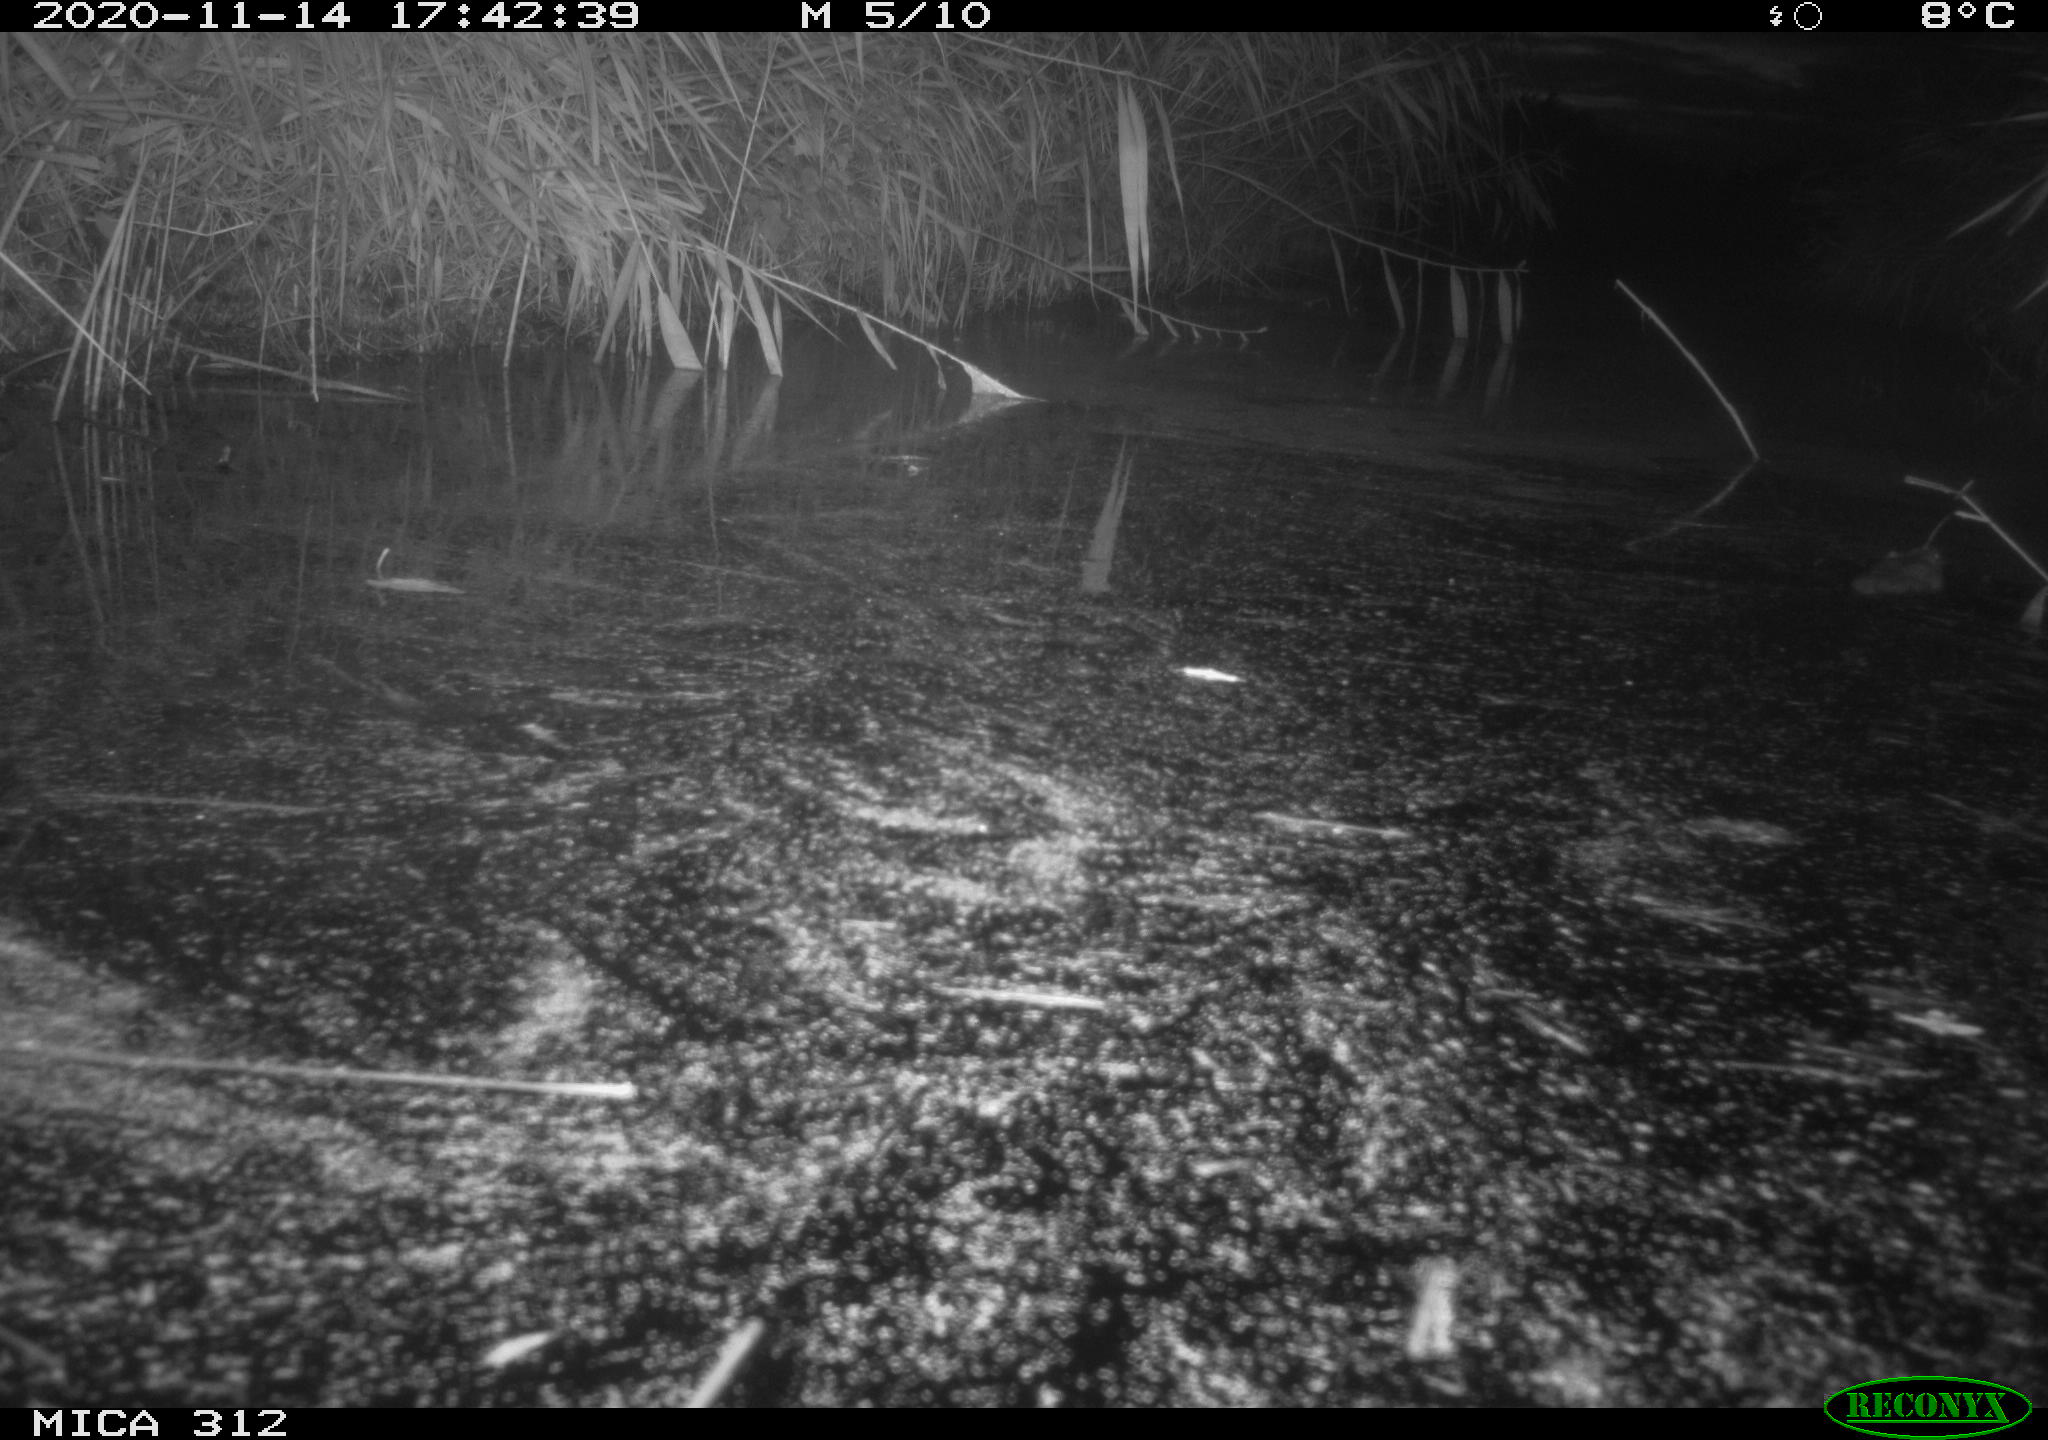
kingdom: Animalia
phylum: Chordata
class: Mammalia
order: Rodentia
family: Muridae
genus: Rattus
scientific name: Rattus norvegicus
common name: Brown rat
